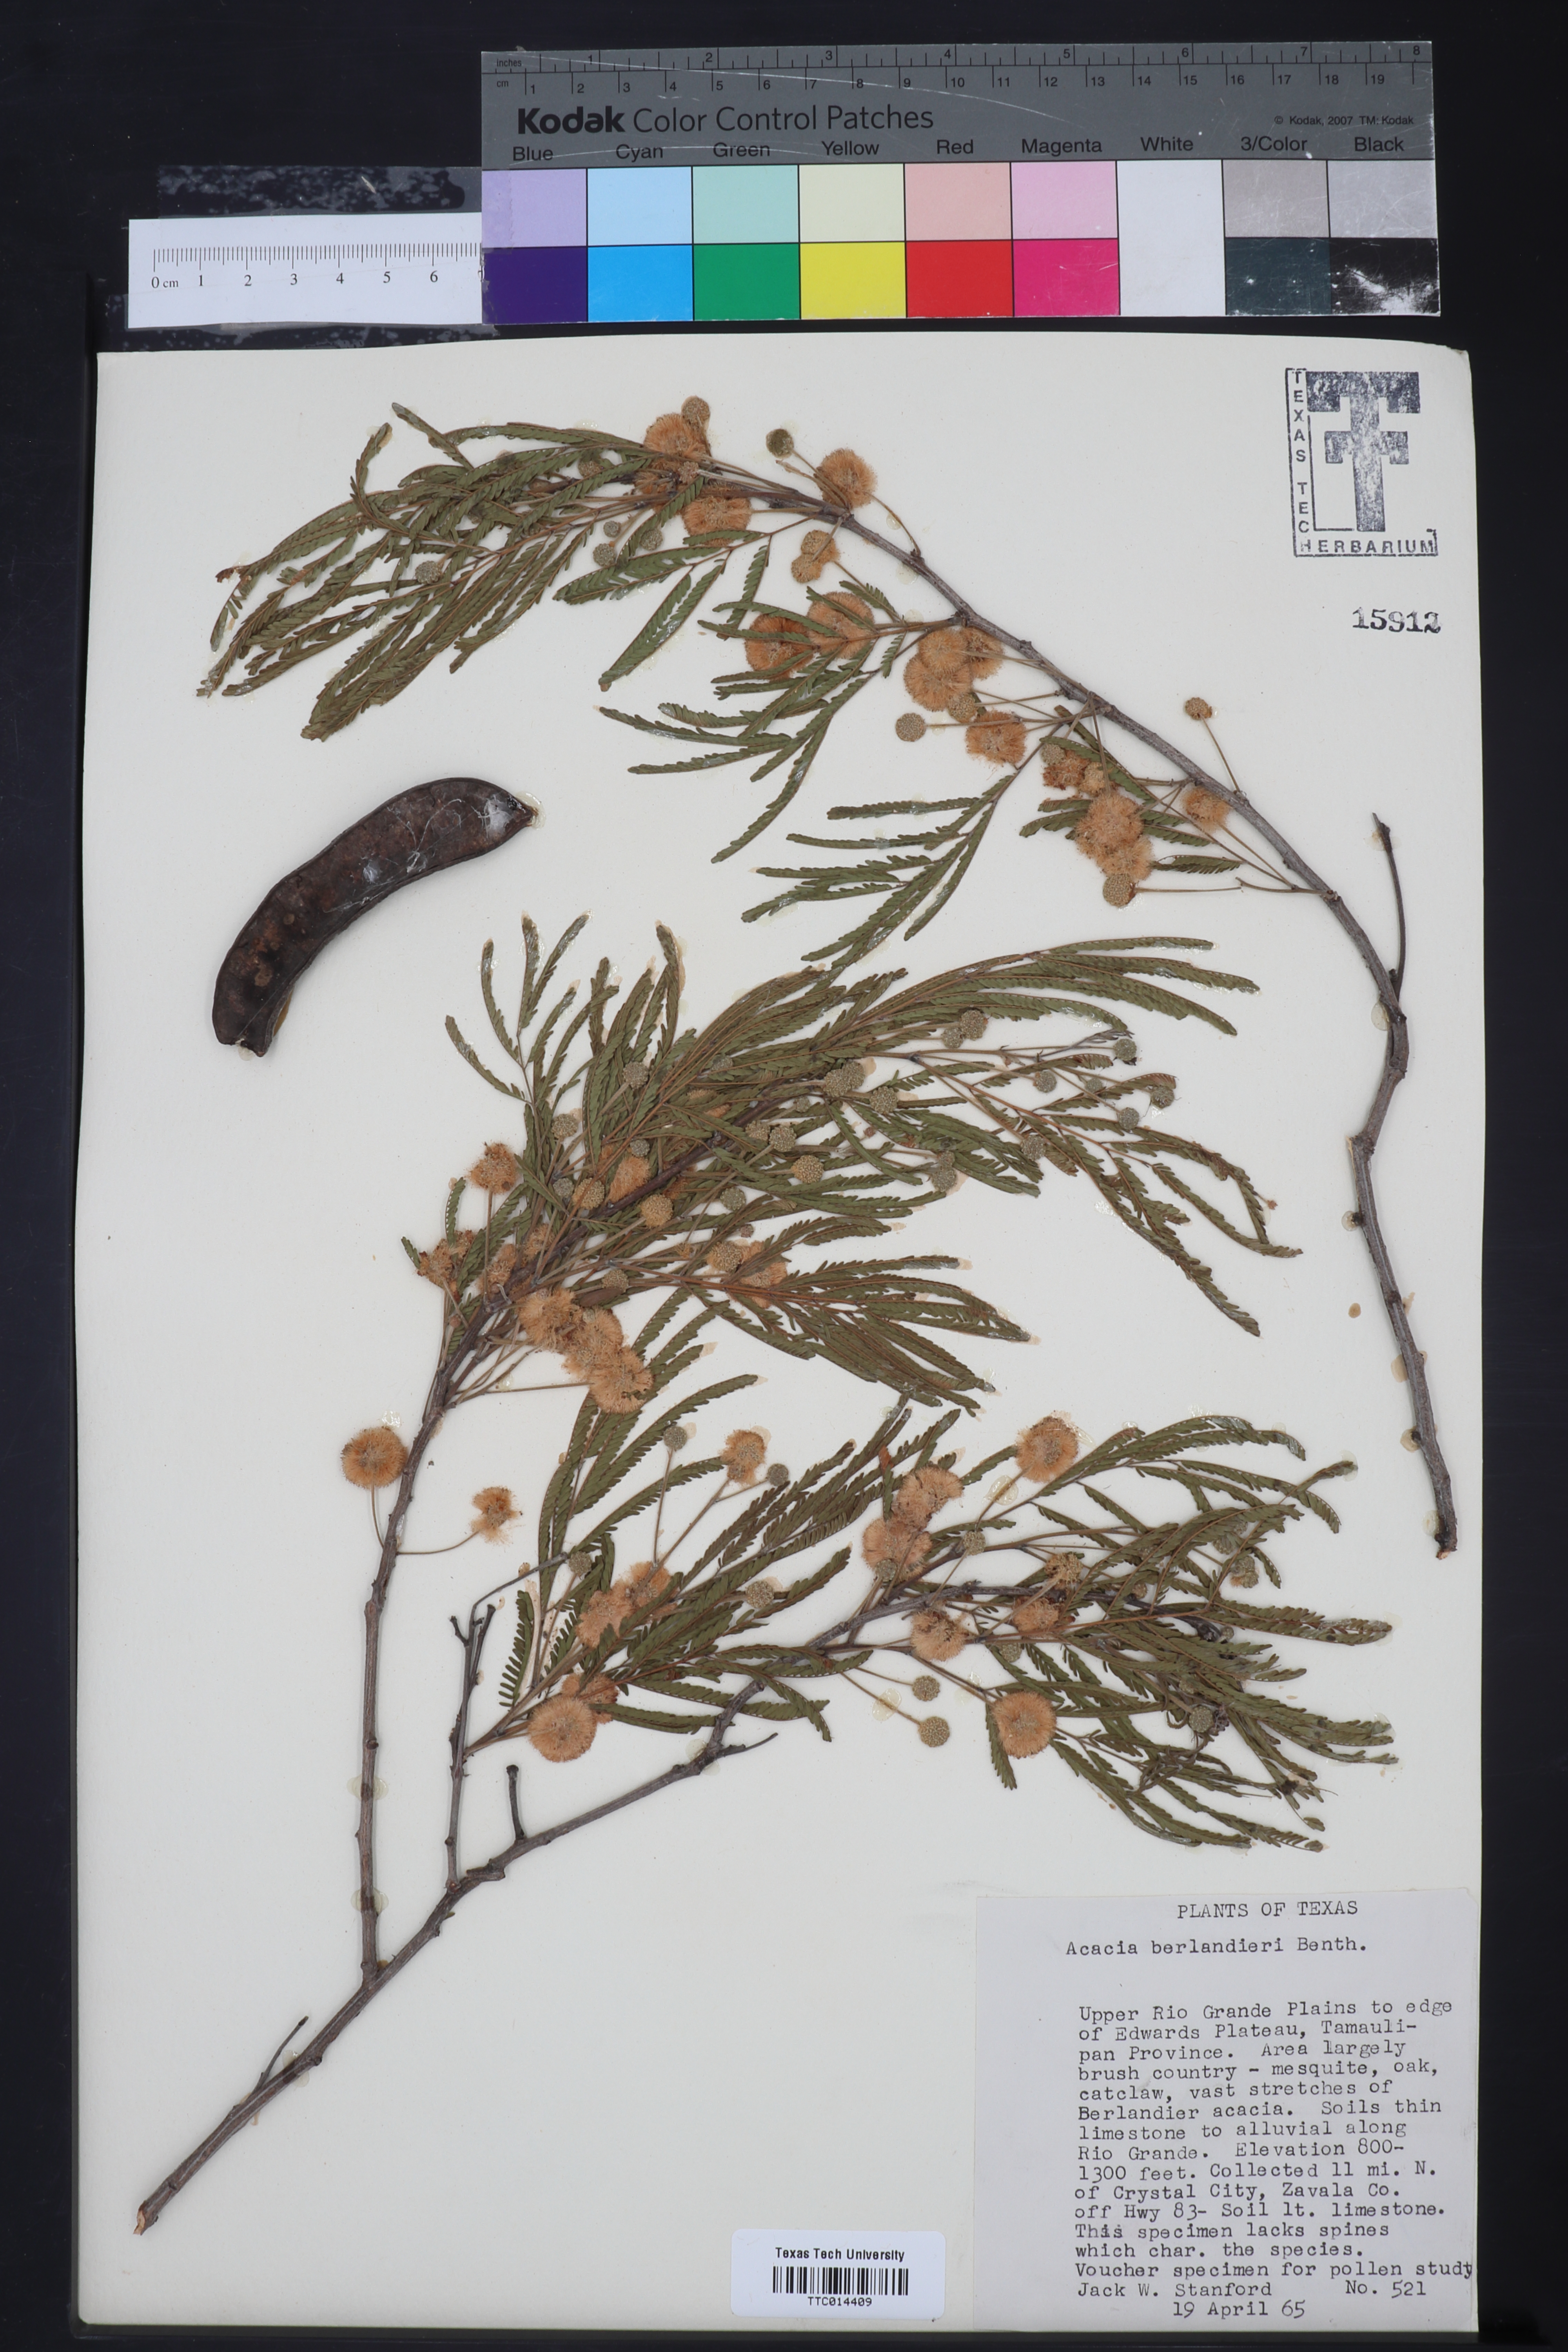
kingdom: Plantae
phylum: Tracheophyta
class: Magnoliopsida
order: Fabales
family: Fabaceae
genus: Senegalia
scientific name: Senegalia berlandieri
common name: Berlandier acacia
